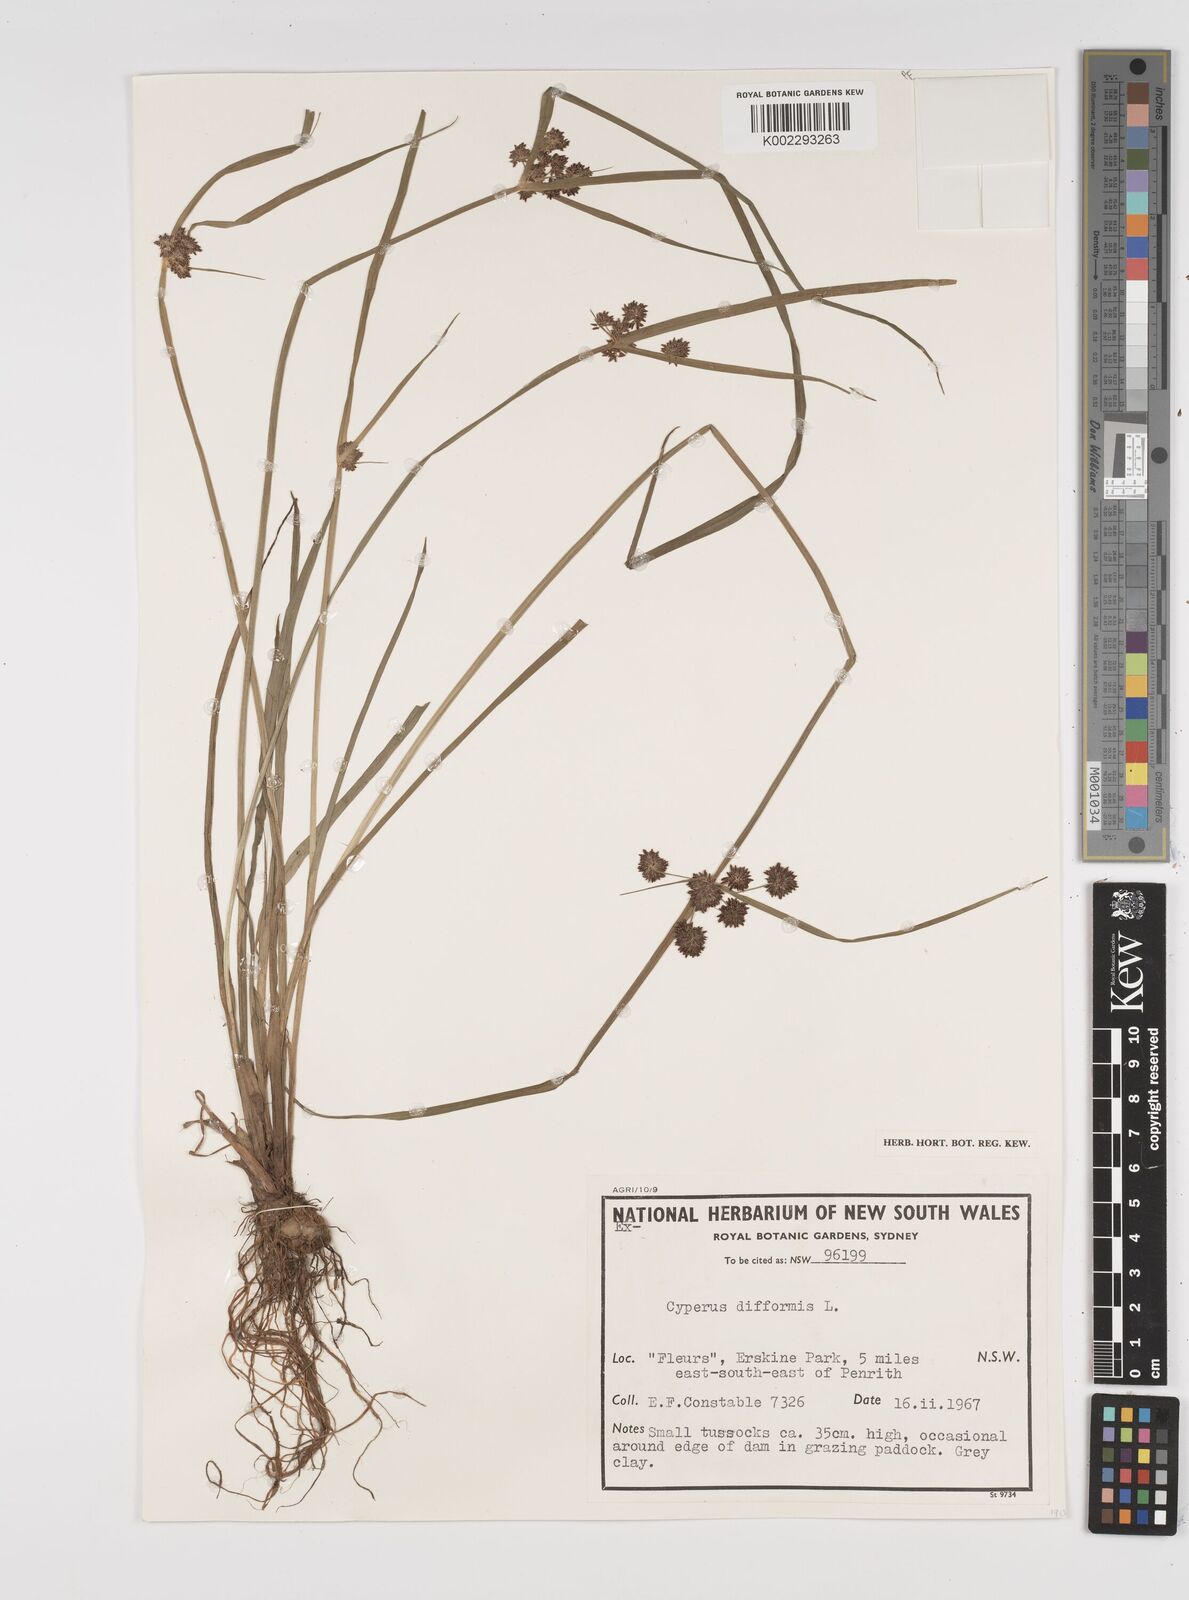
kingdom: Plantae
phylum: Tracheophyta
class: Liliopsida
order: Poales
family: Cyperaceae
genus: Cyperus
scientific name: Cyperus difformis
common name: Variable flatsedge
